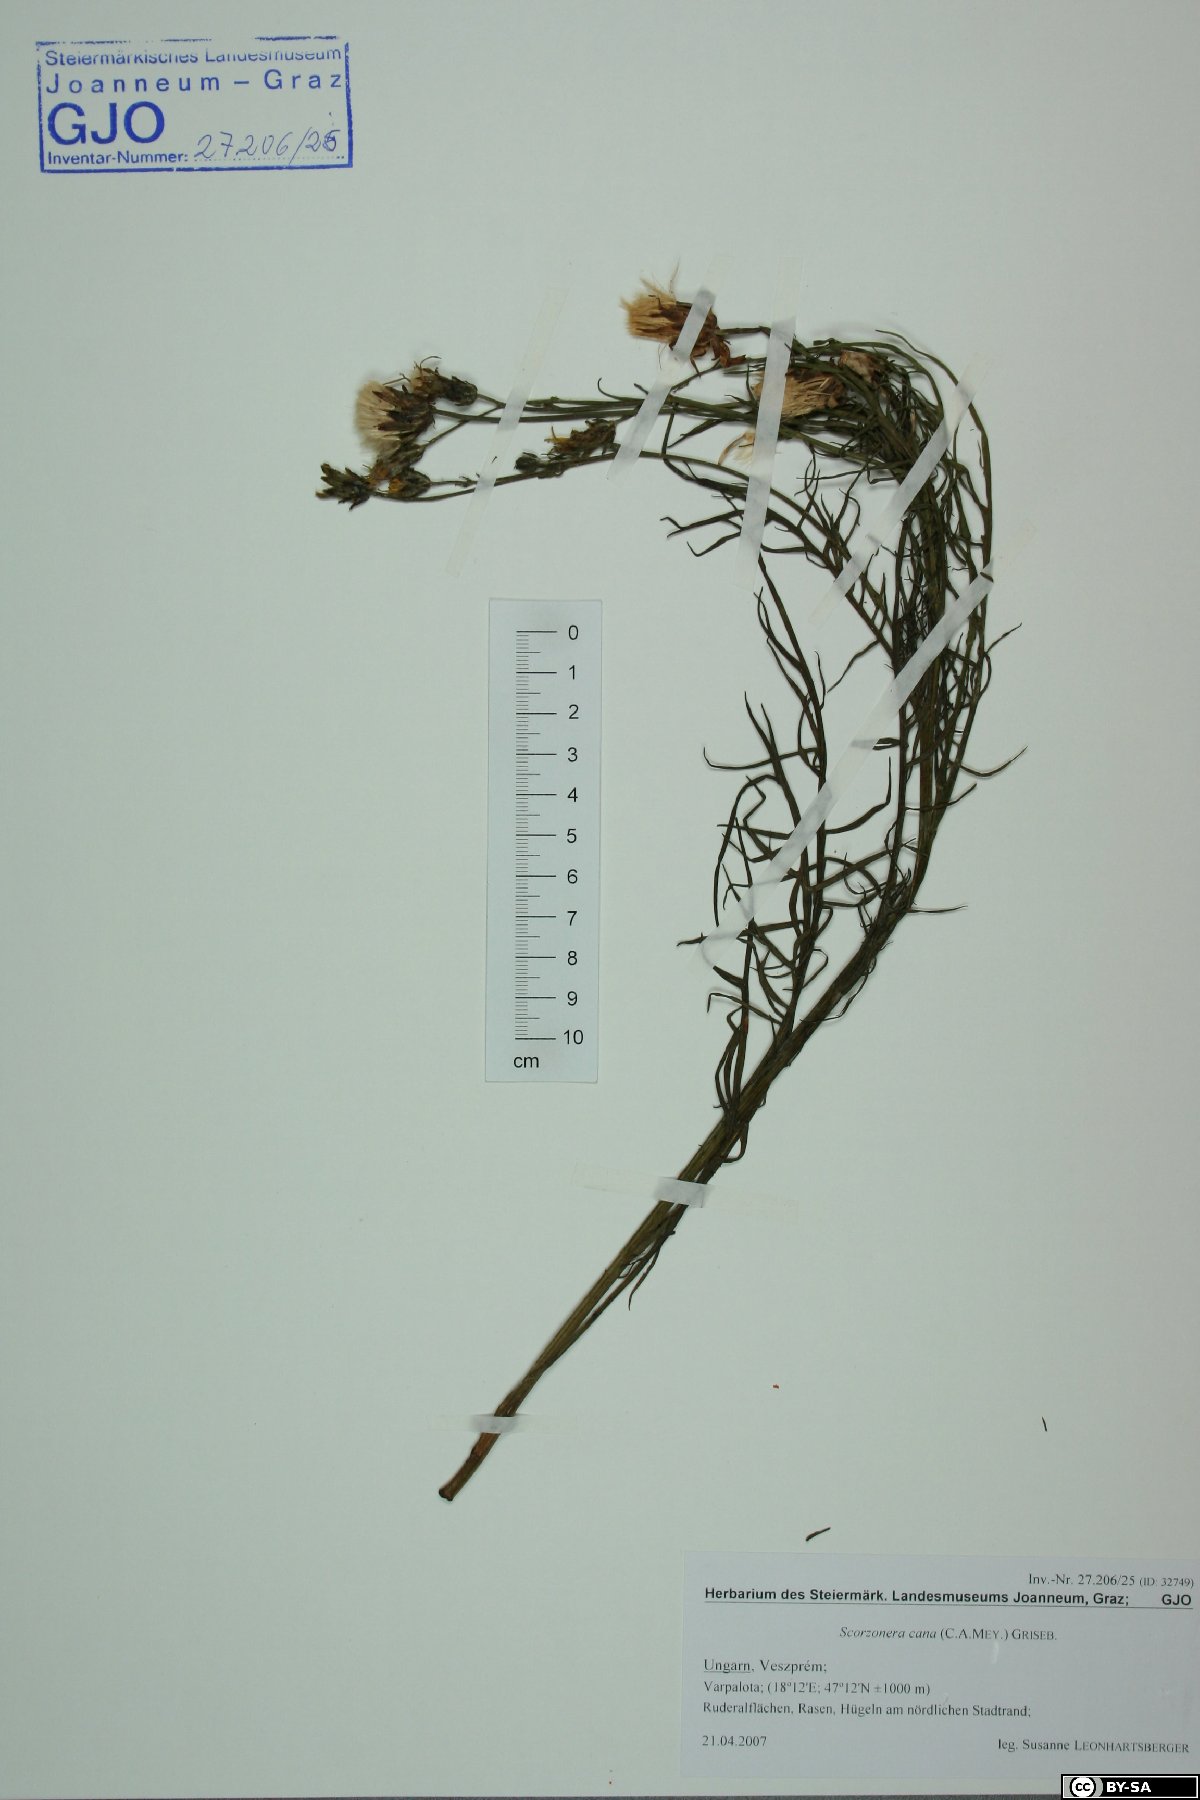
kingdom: Plantae
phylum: Tracheophyta
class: Magnoliopsida
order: Asterales
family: Asteraceae
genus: Scorzonera
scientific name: Scorzonera cana
